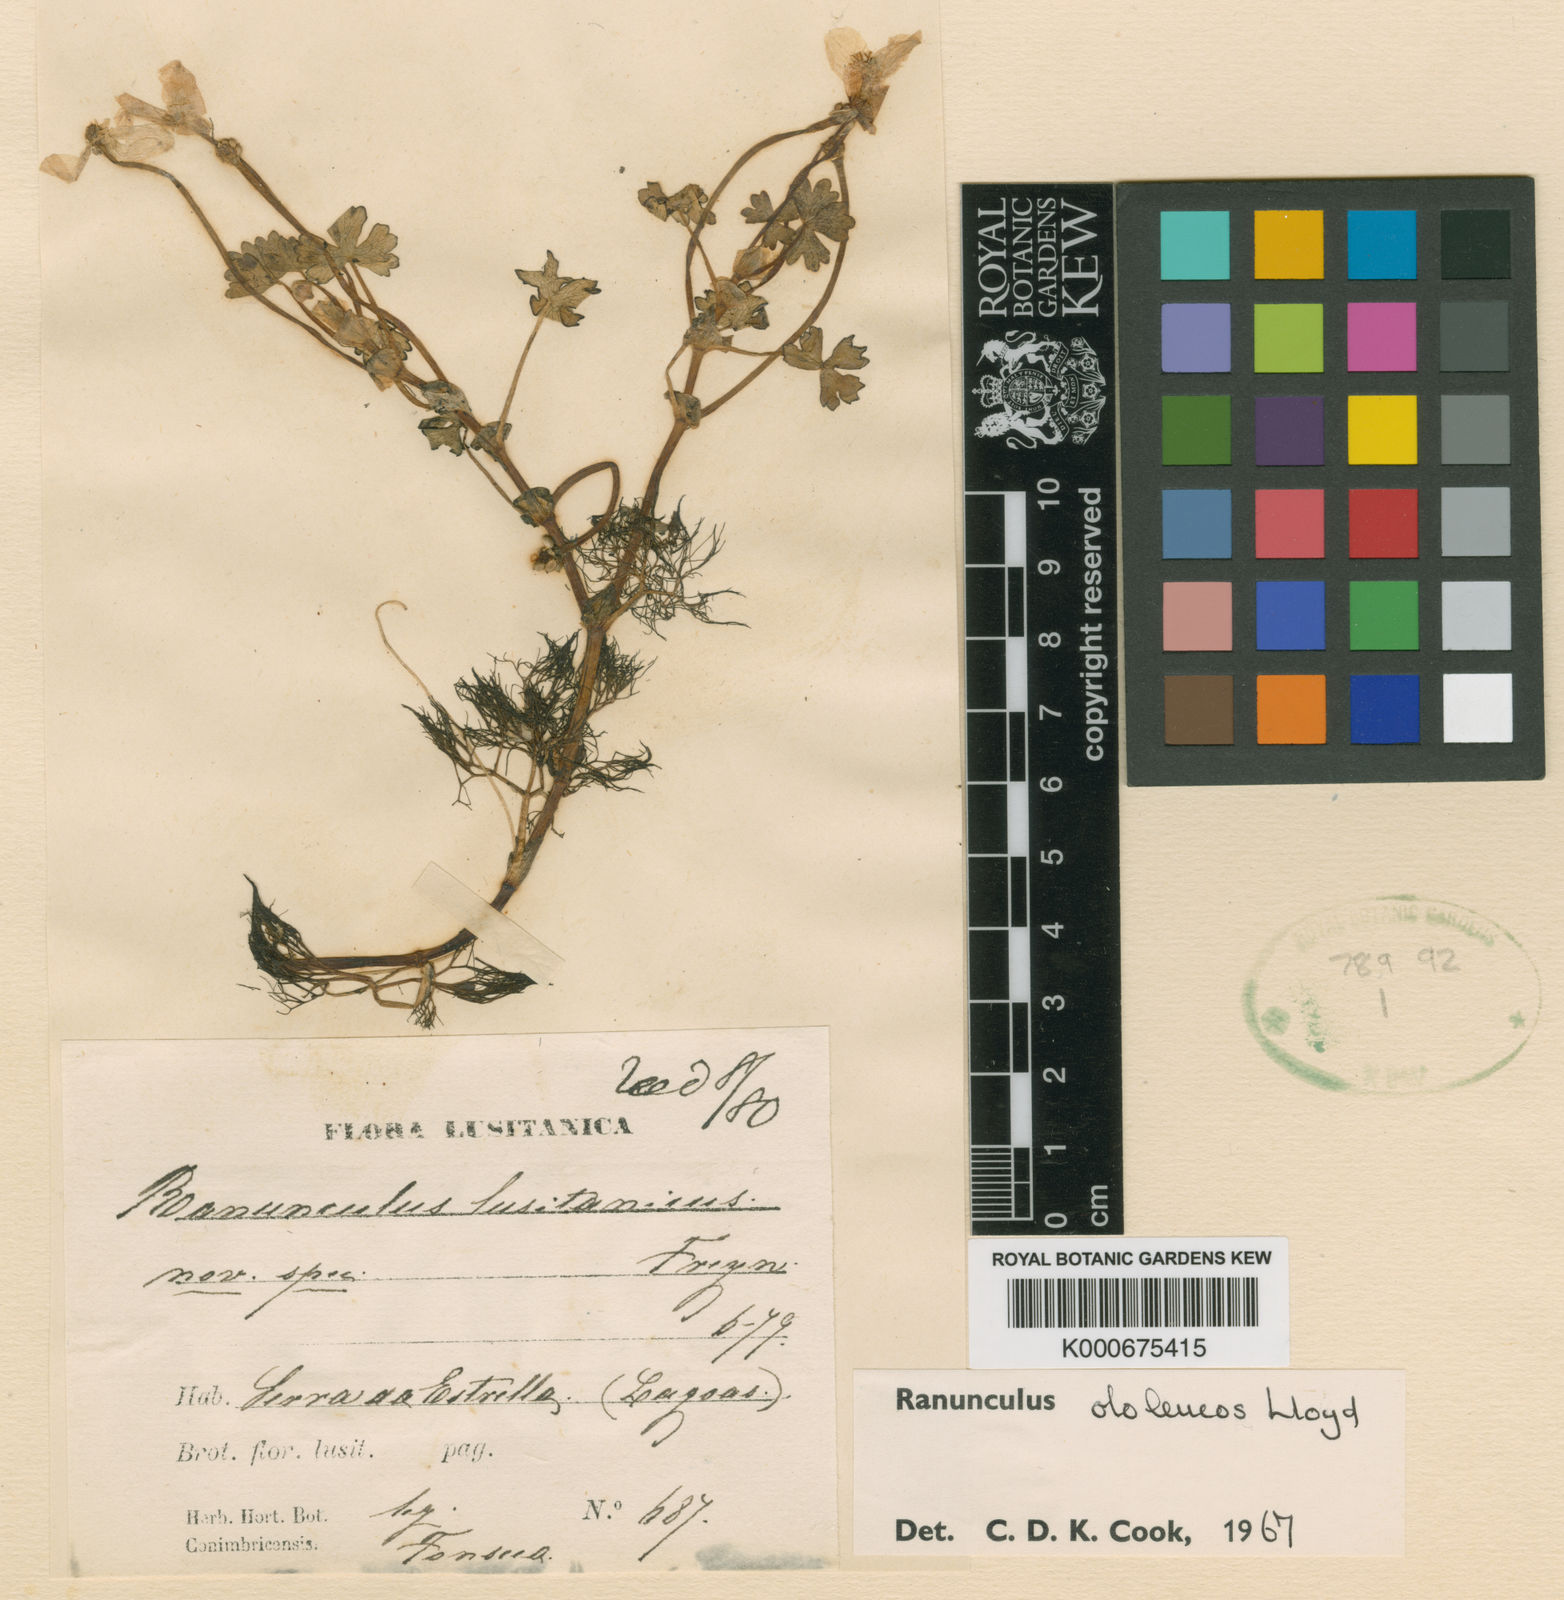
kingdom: Plantae
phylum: Tracheophyta
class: Magnoliopsida
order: Ranunculales
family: Ranunculaceae
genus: Ranunculus
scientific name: Ranunculus ololeucos
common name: White-flowered buttercup
